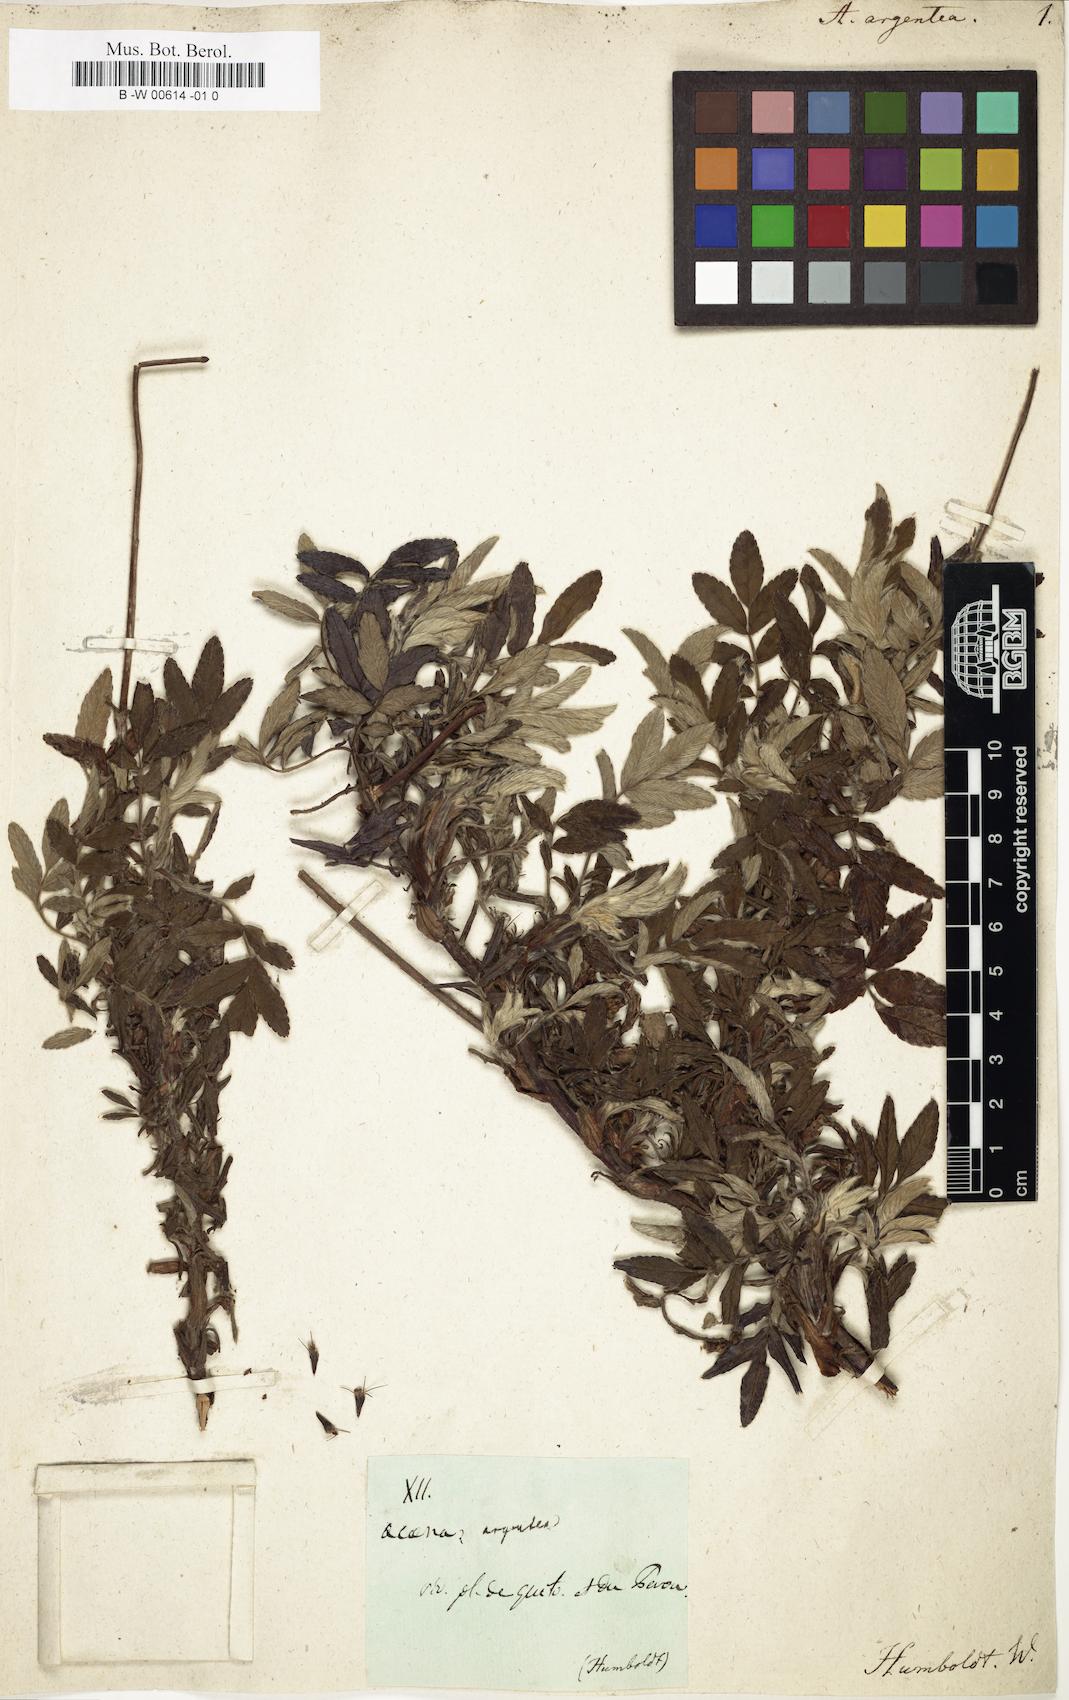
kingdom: Plantae
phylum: Tracheophyta
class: Magnoliopsida
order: Rosales
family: Rosaceae
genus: Acaena
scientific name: Acaena argentea
